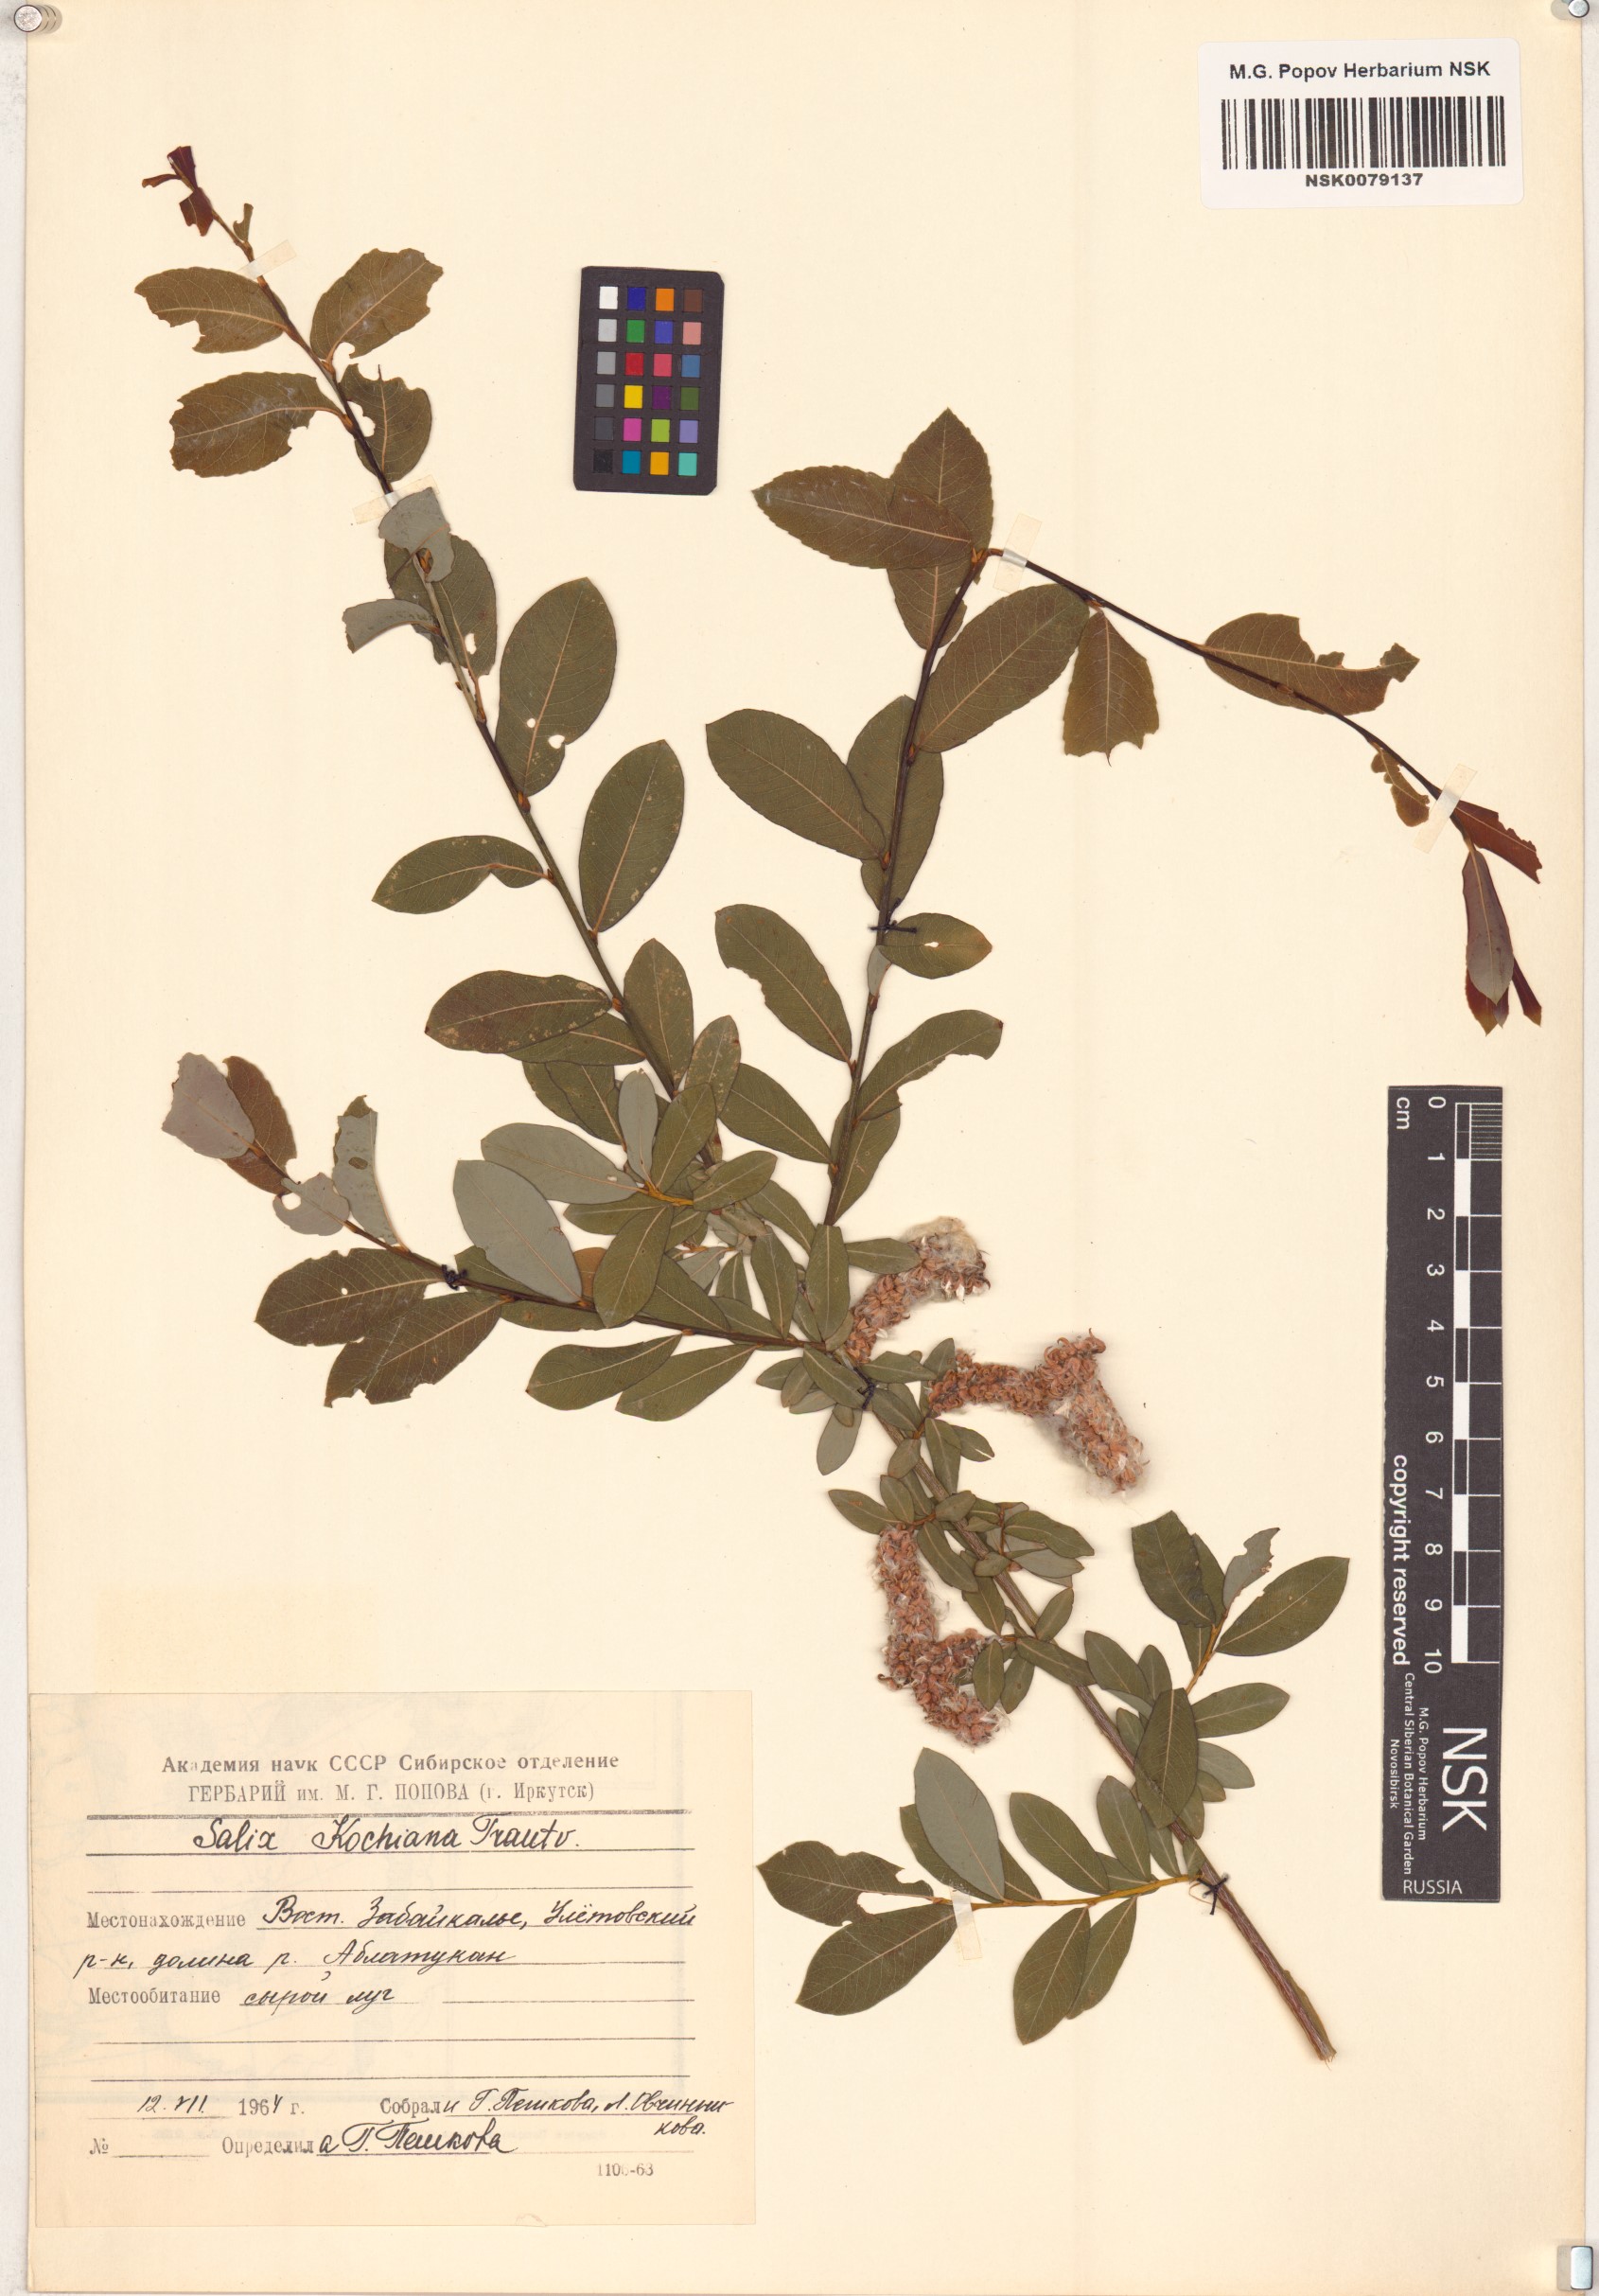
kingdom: Plantae
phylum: Tracheophyta
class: Magnoliopsida
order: Malpighiales
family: Salicaceae
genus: Salix
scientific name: Salix kochiana
